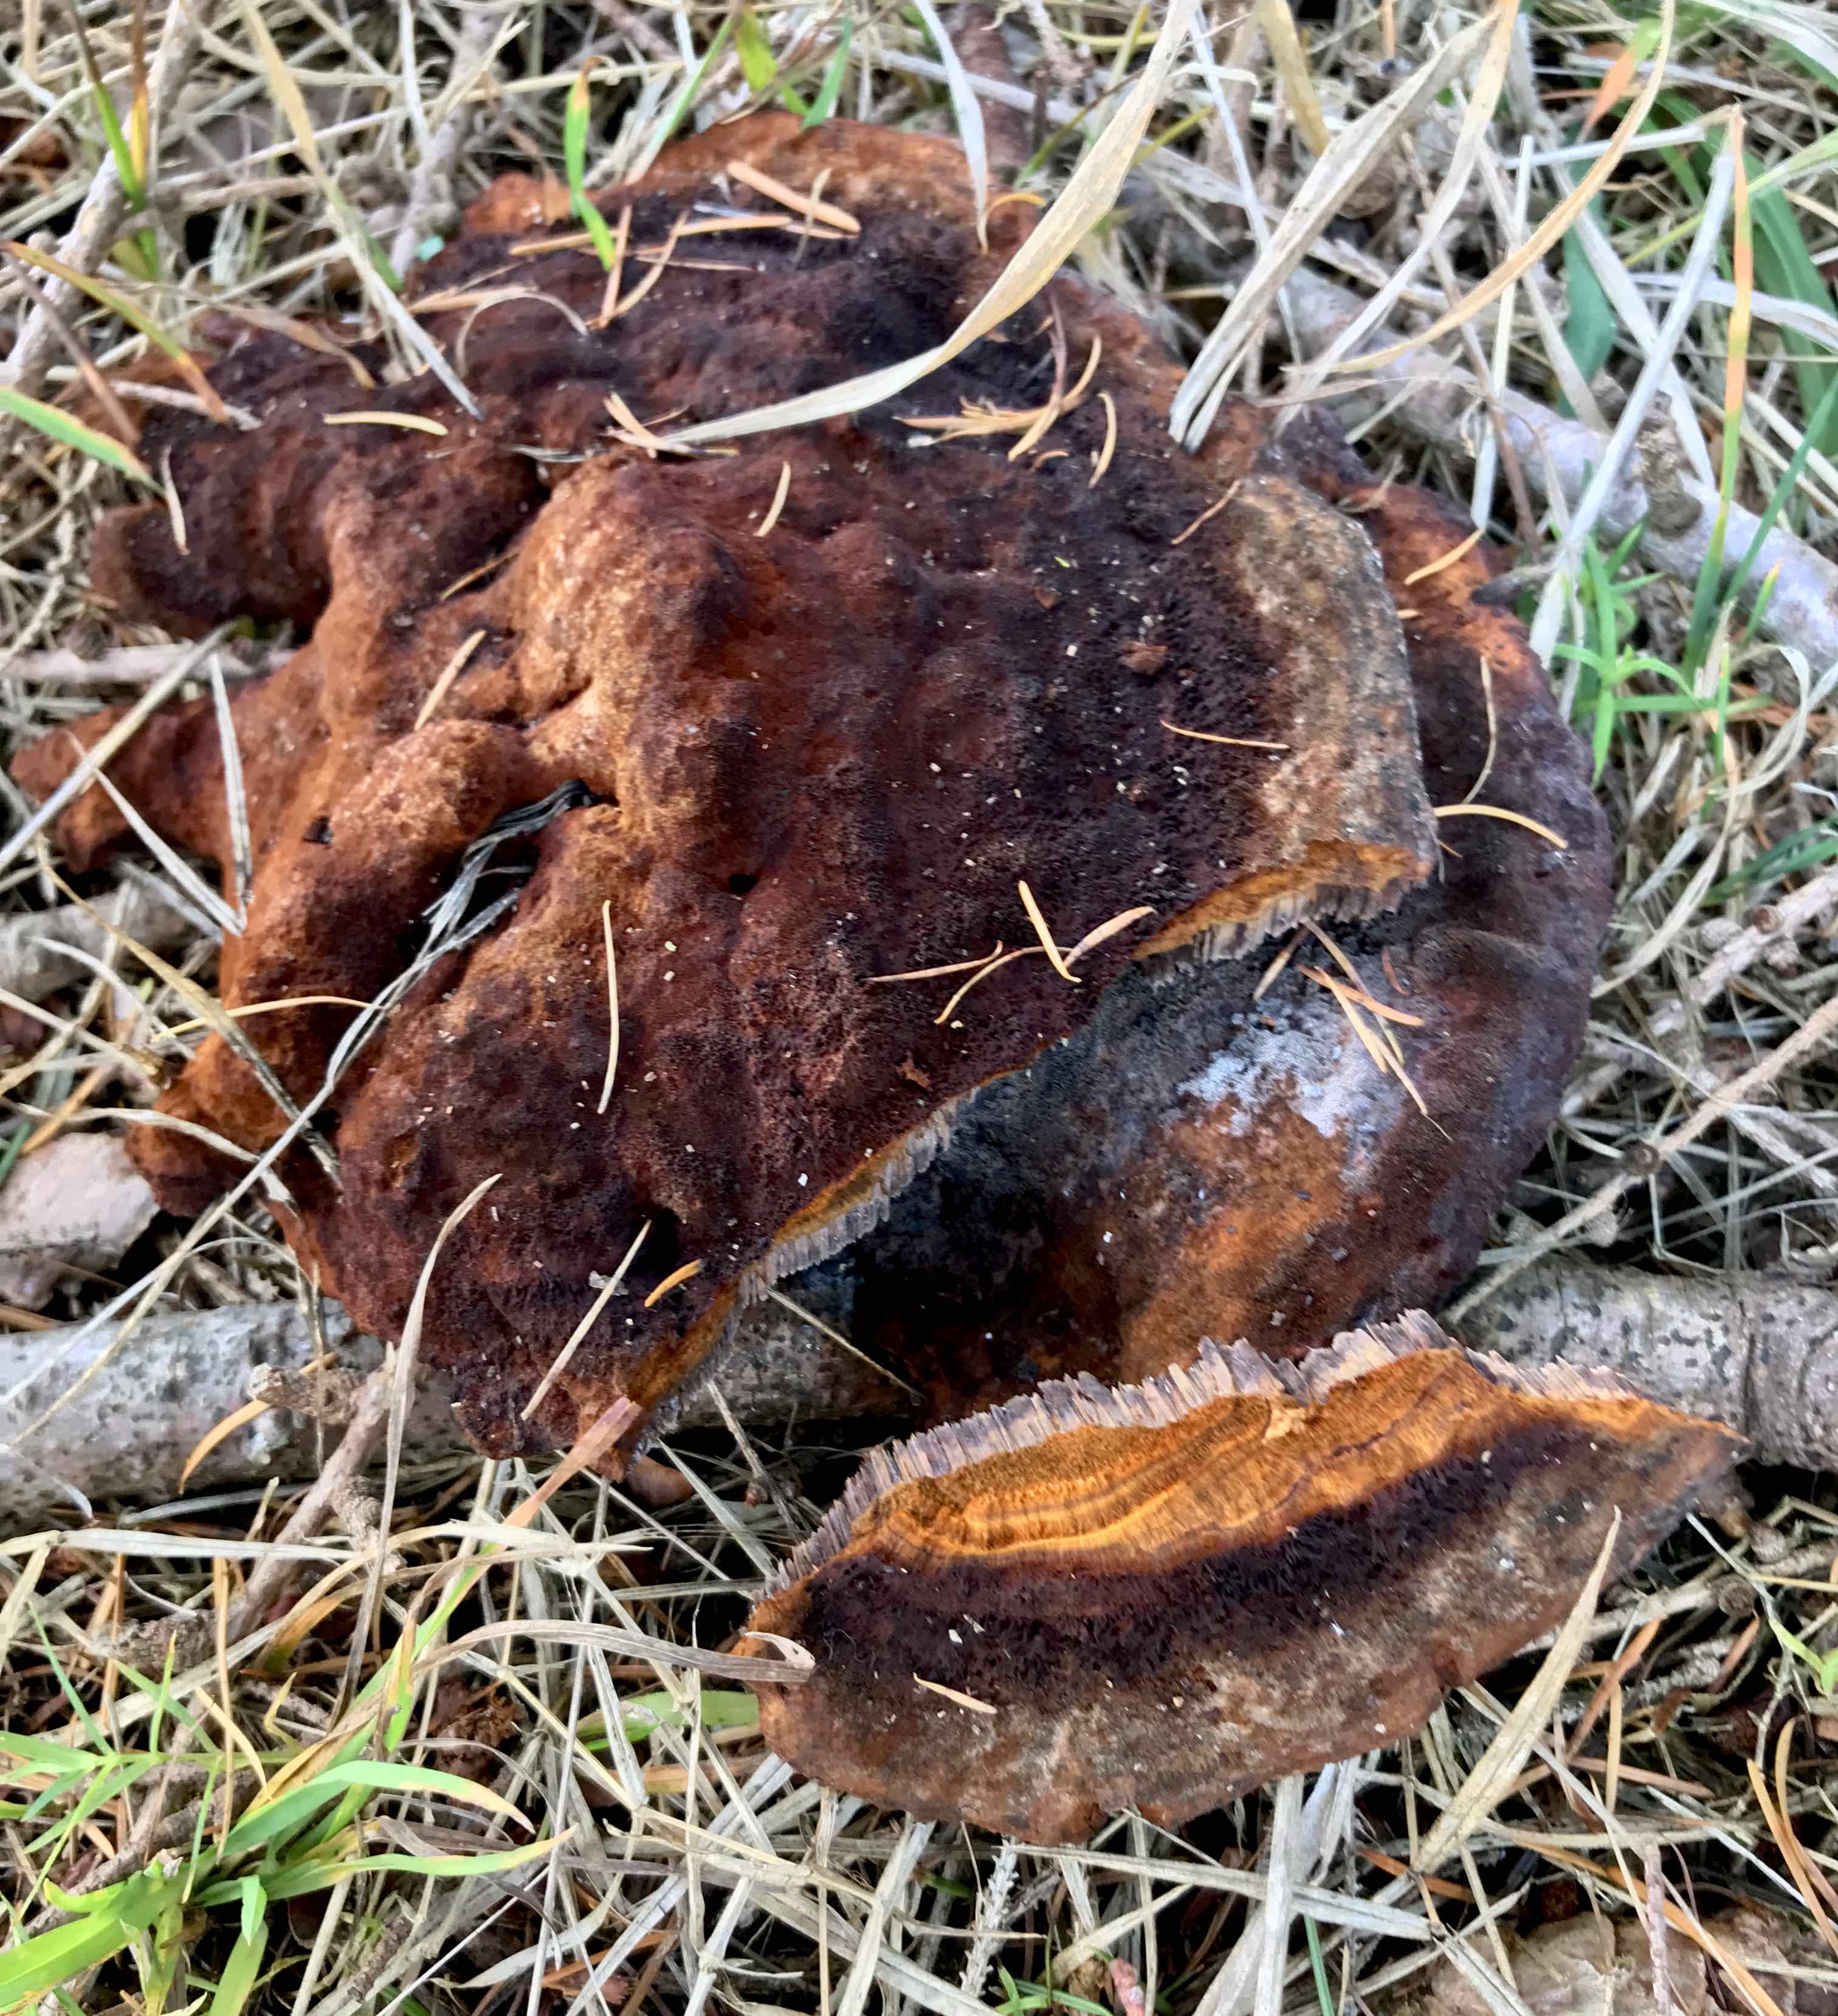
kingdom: Fungi
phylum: Basidiomycota
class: Agaricomycetes
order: Polyporales
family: Laetiporaceae
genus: Phaeolus
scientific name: Phaeolus schweinitzii
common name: brunporesvamp
